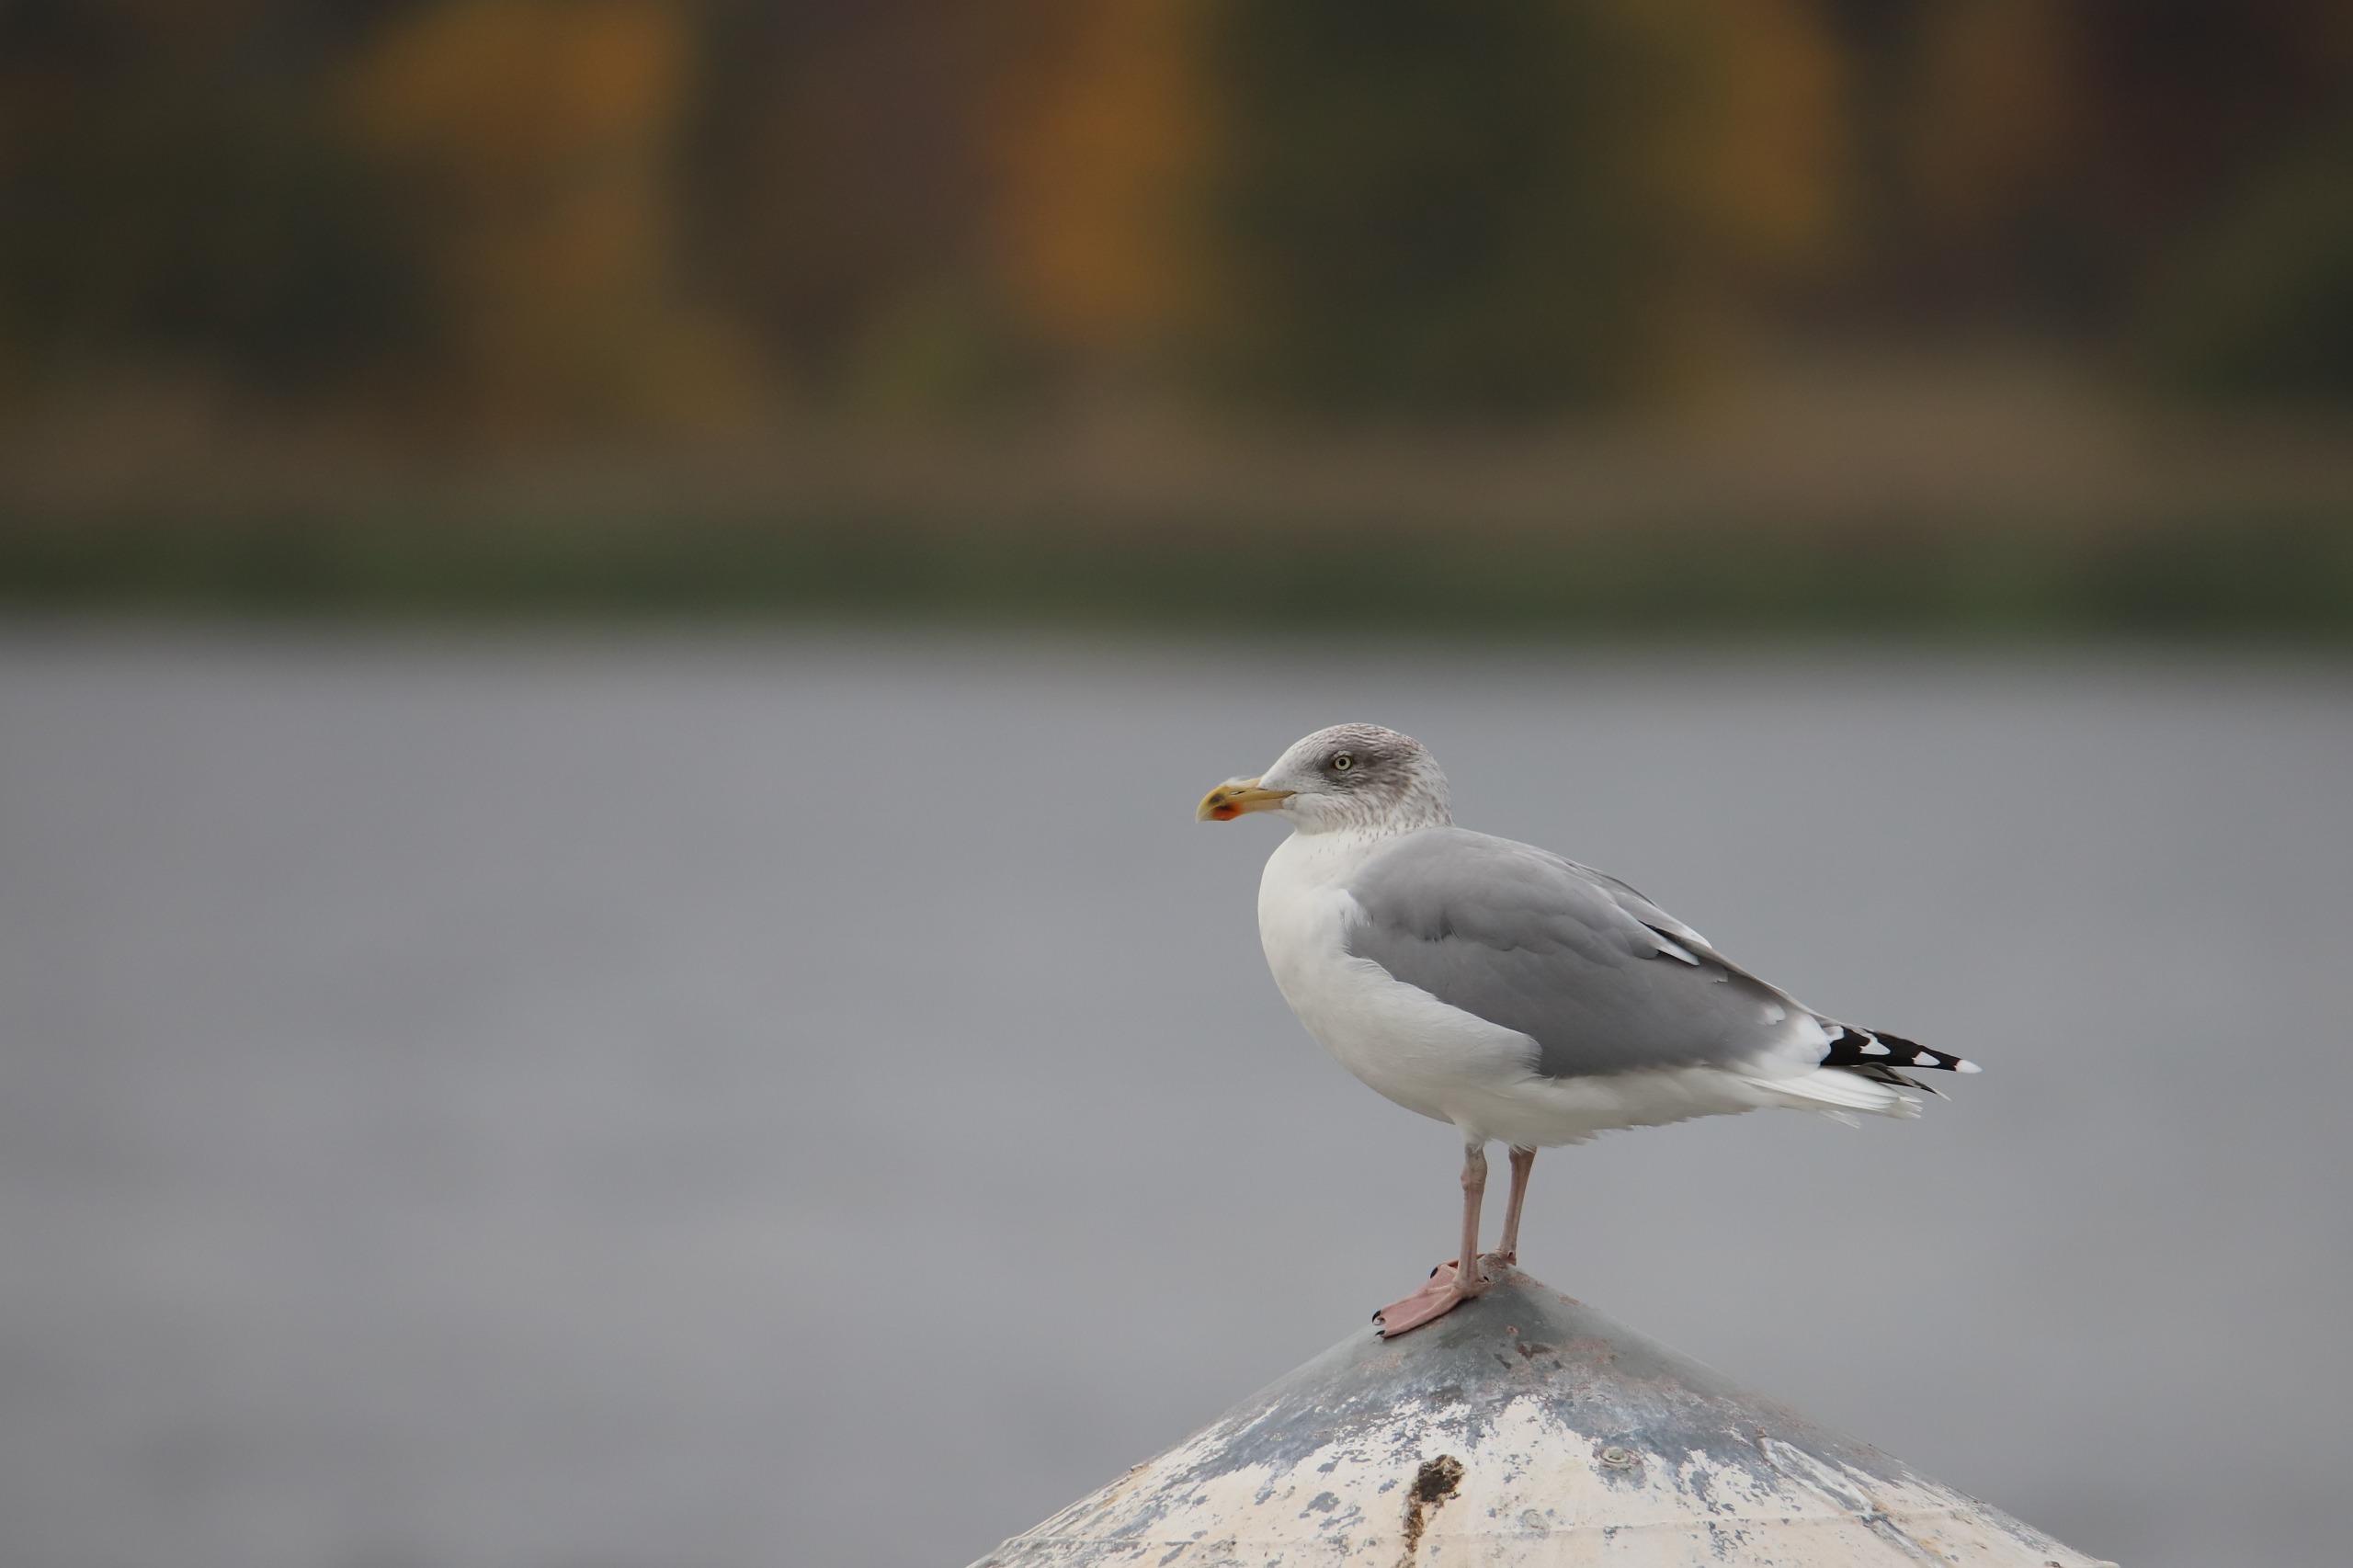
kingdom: Animalia
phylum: Chordata
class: Aves
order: Charadriiformes
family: Laridae
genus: Larus
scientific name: Larus argentatus
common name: Sølvmåge
